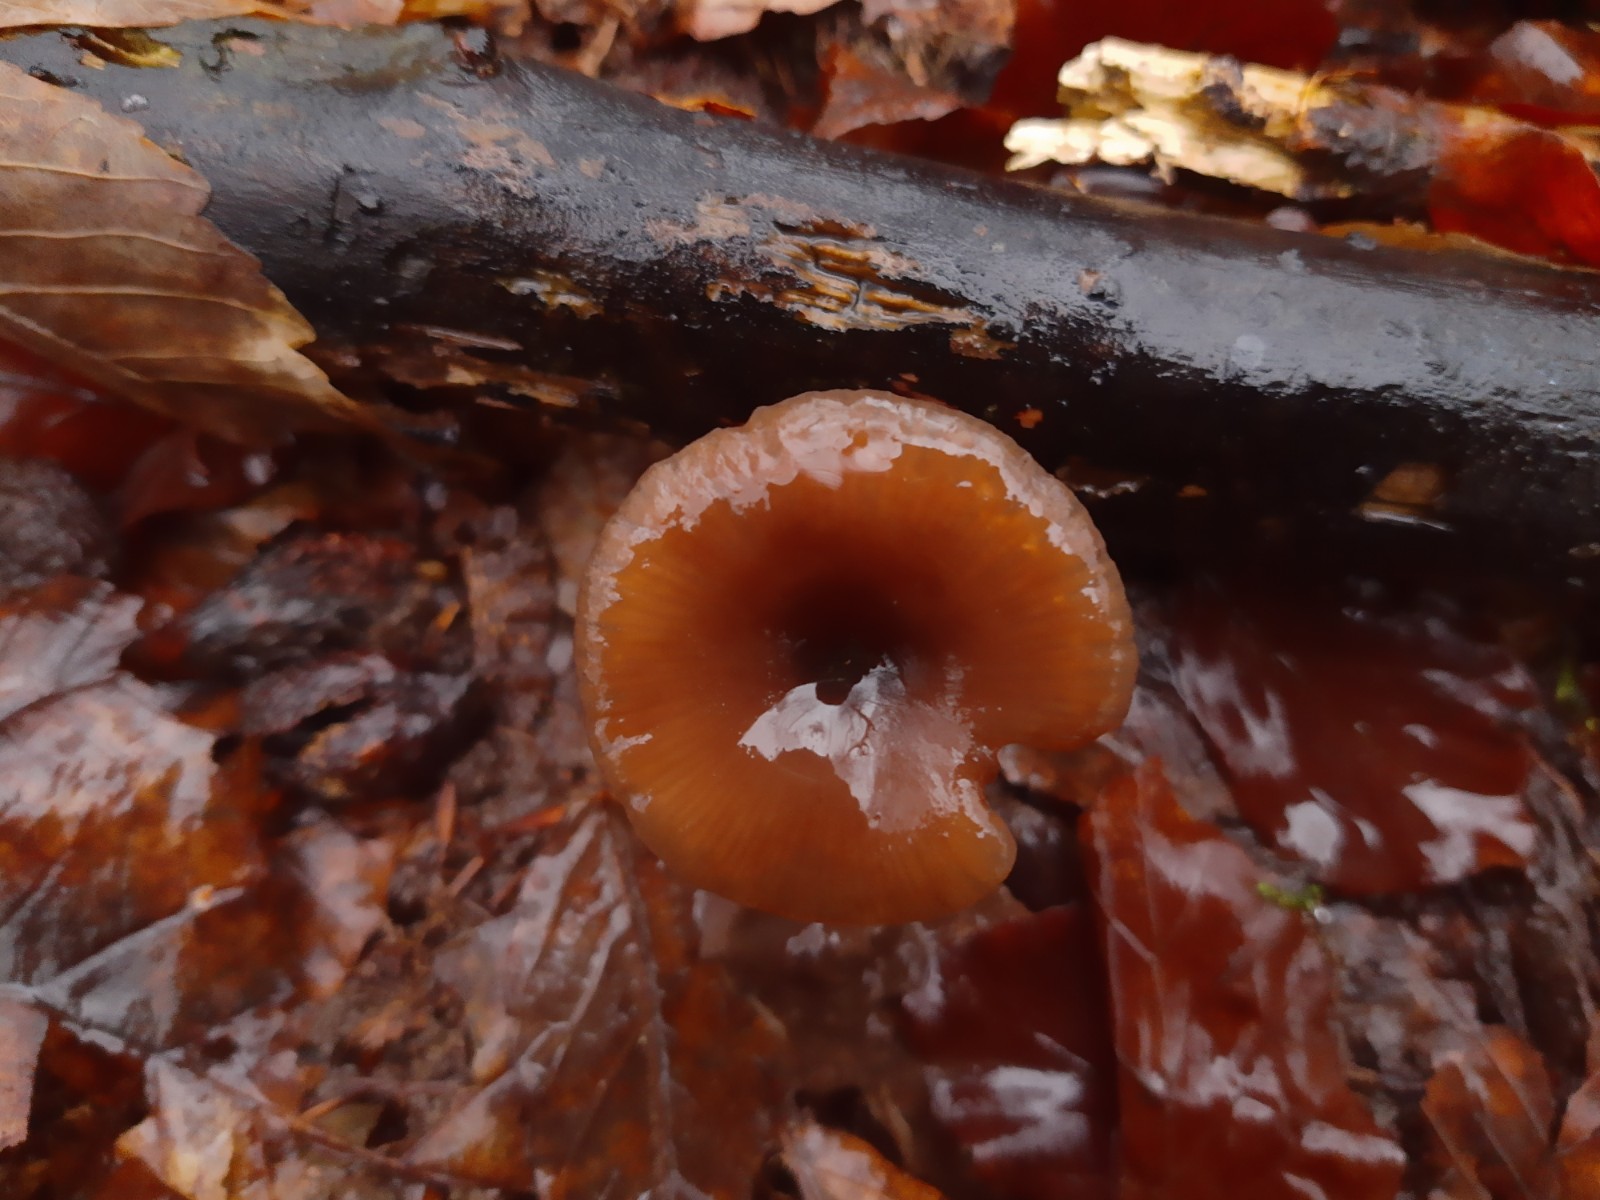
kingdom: Fungi
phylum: Basidiomycota
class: Agaricomycetes
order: Agaricales
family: Pseudoclitocybaceae
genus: Pseudoclitocybe
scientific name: Pseudoclitocybe cyathiformis
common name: almindelig bægertragthat
